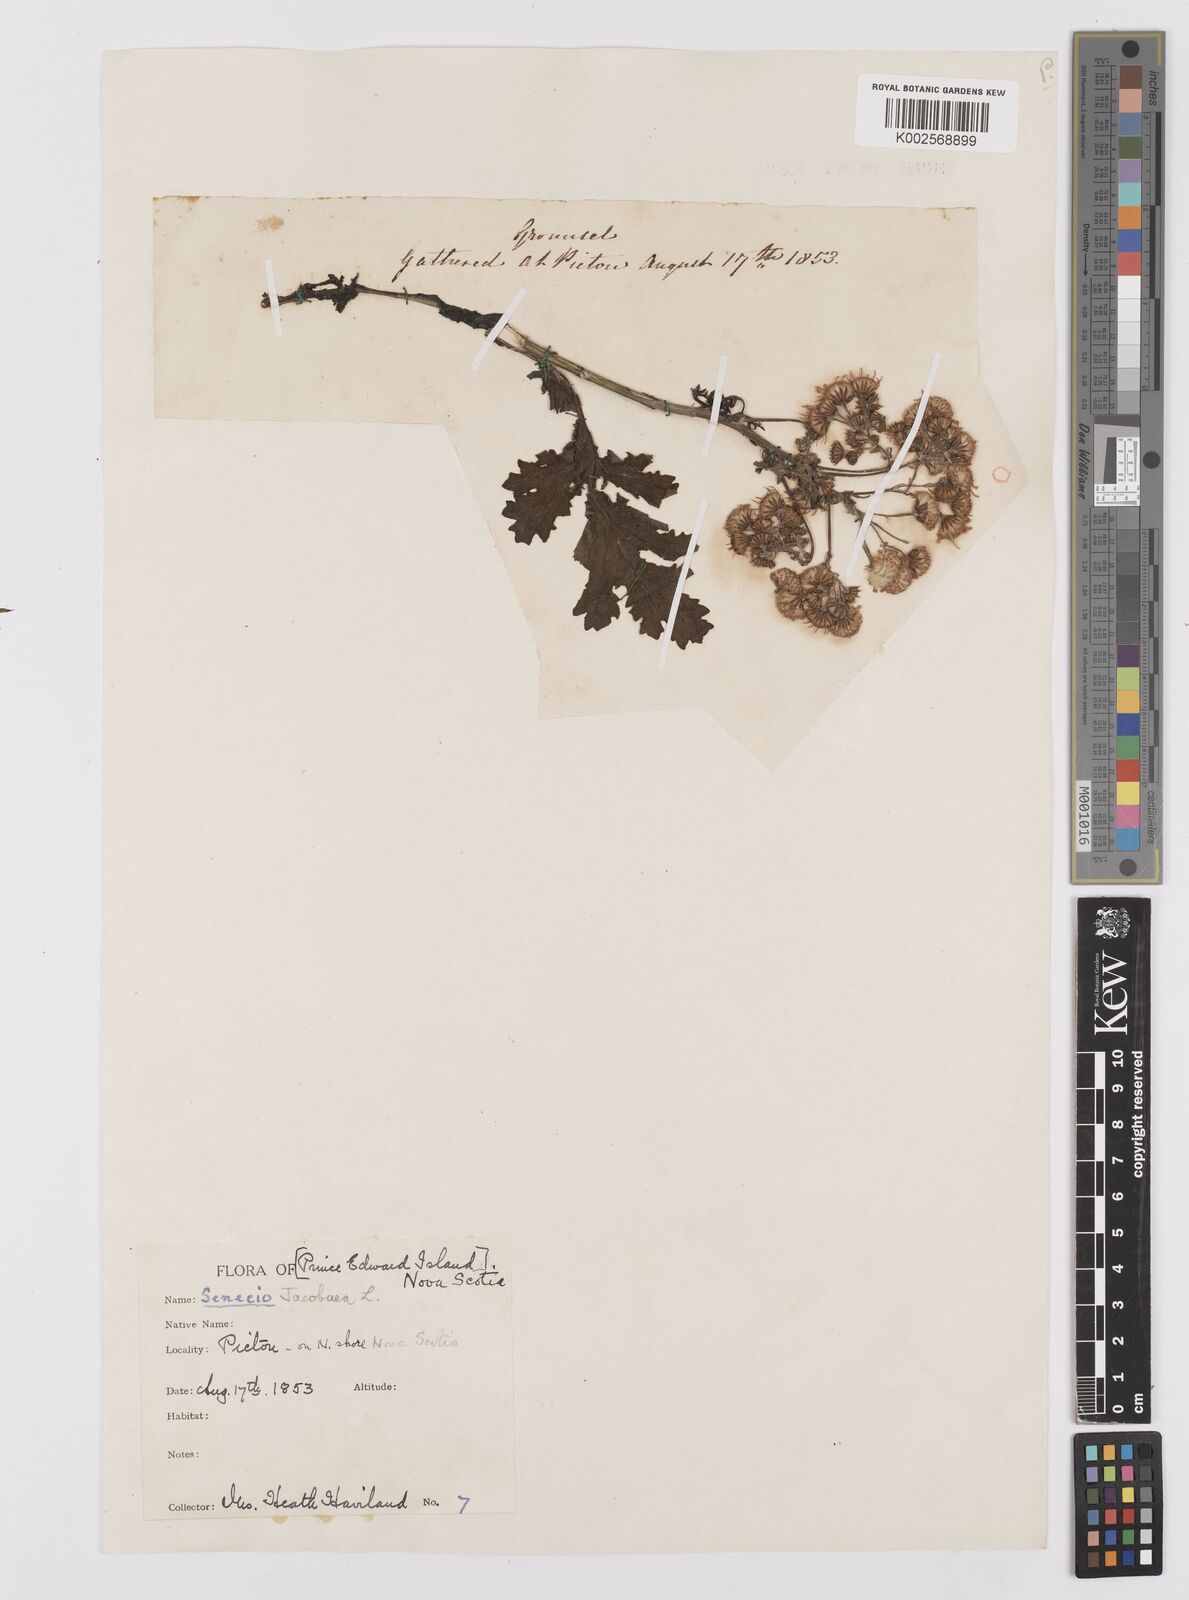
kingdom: Plantae
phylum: Tracheophyta
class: Magnoliopsida
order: Asterales
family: Asteraceae
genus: Jacobaea
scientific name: Jacobaea vulgaris
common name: Stinking willie
